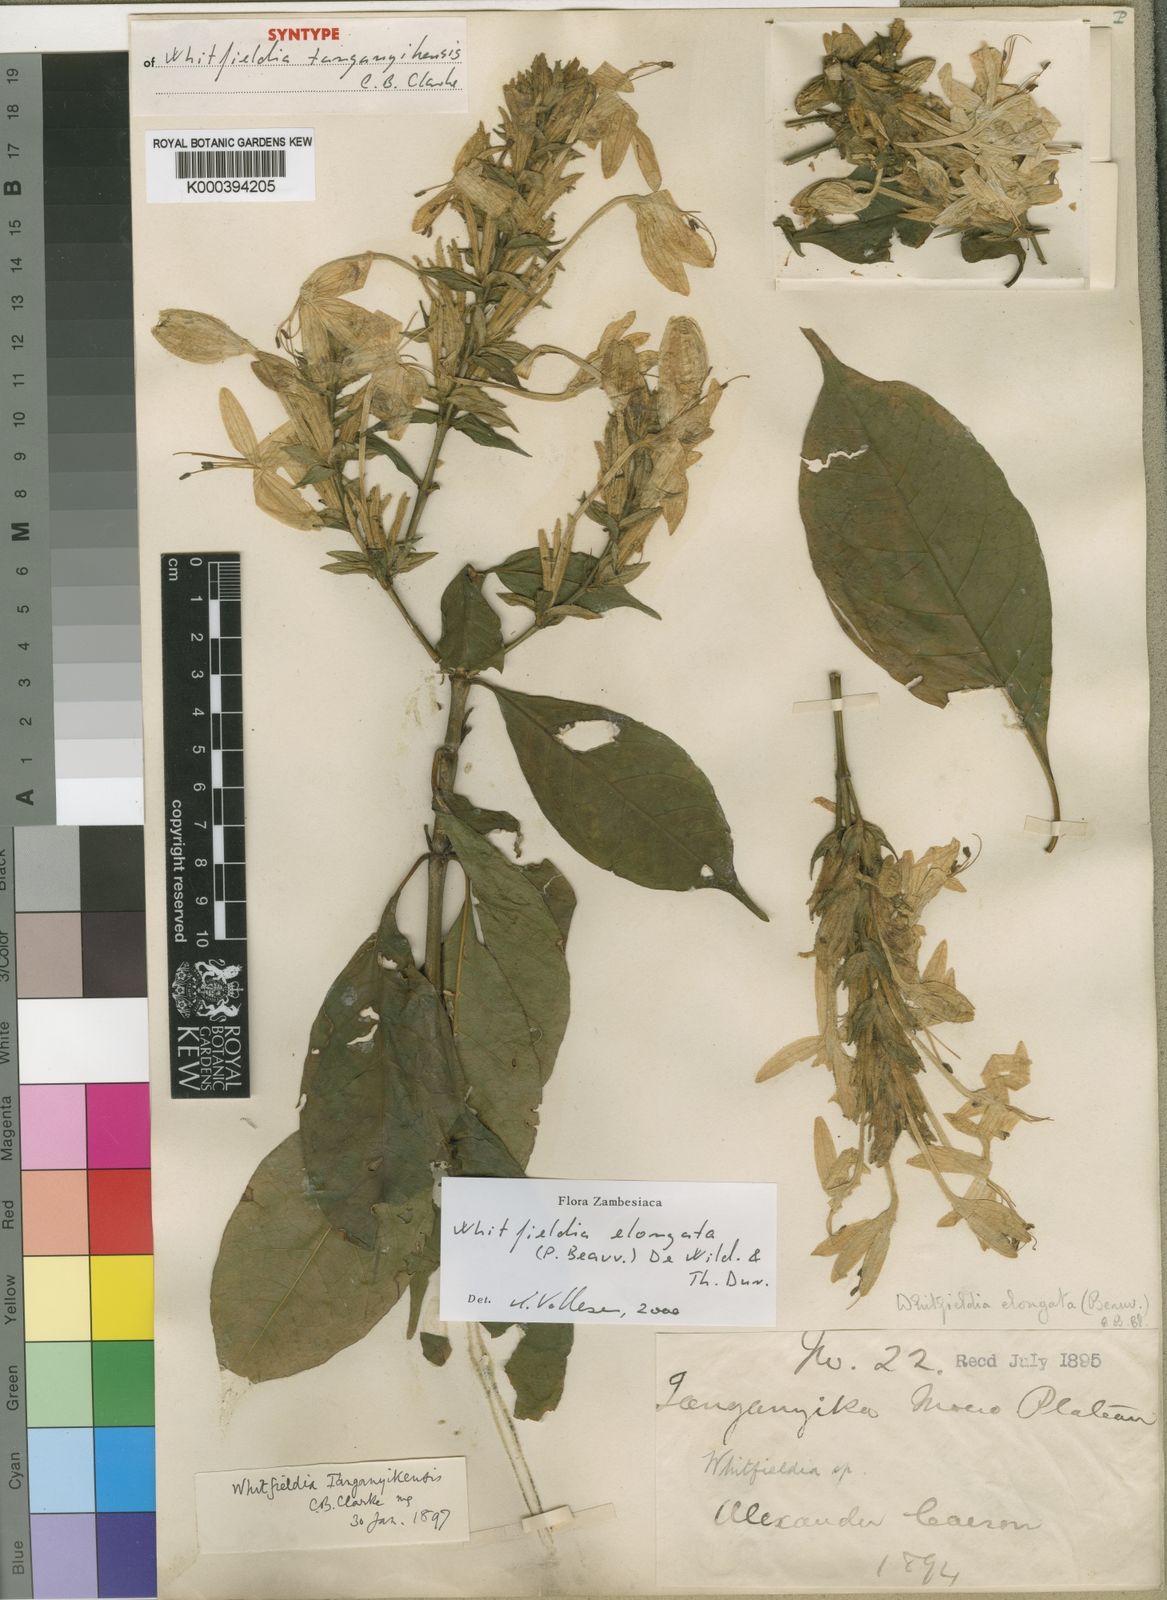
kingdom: Plantae
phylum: Tracheophyta
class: Magnoliopsida
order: Lamiales
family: Acanthaceae
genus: Whitfieldia
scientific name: Whitfieldia elongata
